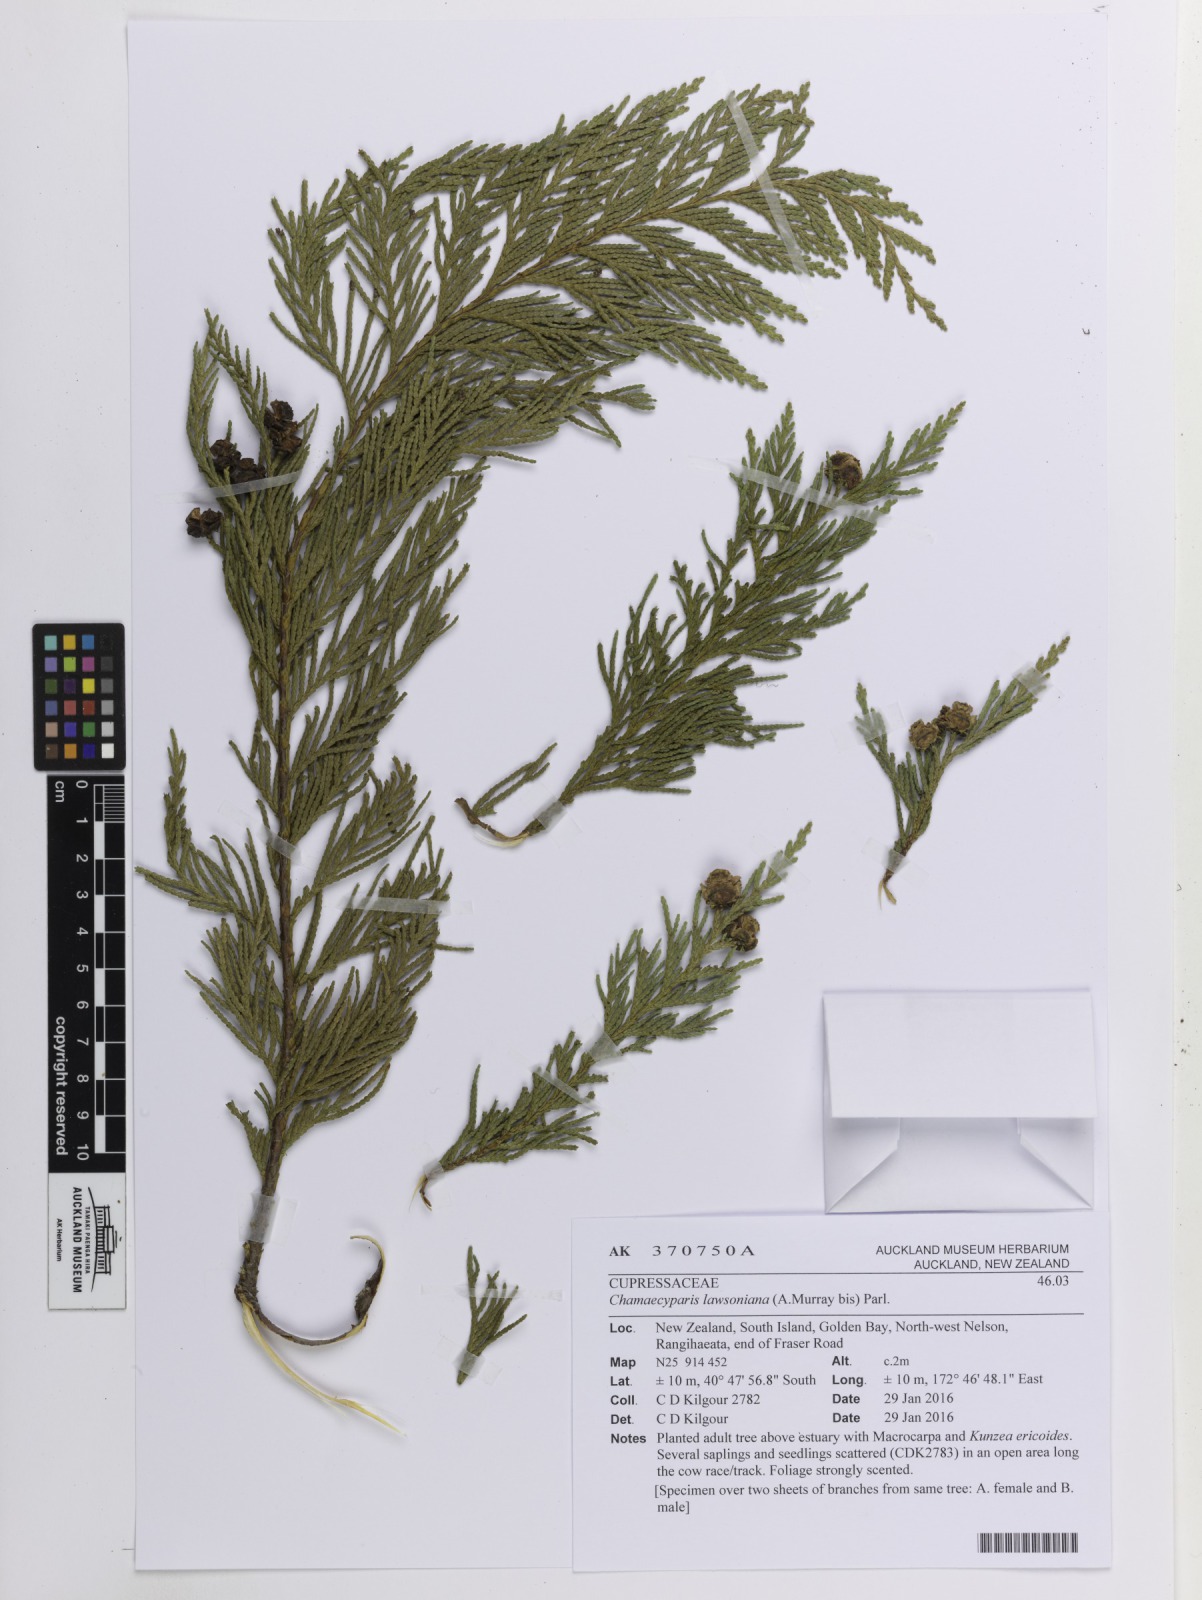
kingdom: Plantae
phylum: Tracheophyta
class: Pinopsida
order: Pinales
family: Cupressaceae
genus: Chamaecyparis
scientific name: Chamaecyparis lawsoniana
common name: Lawson's cypress
